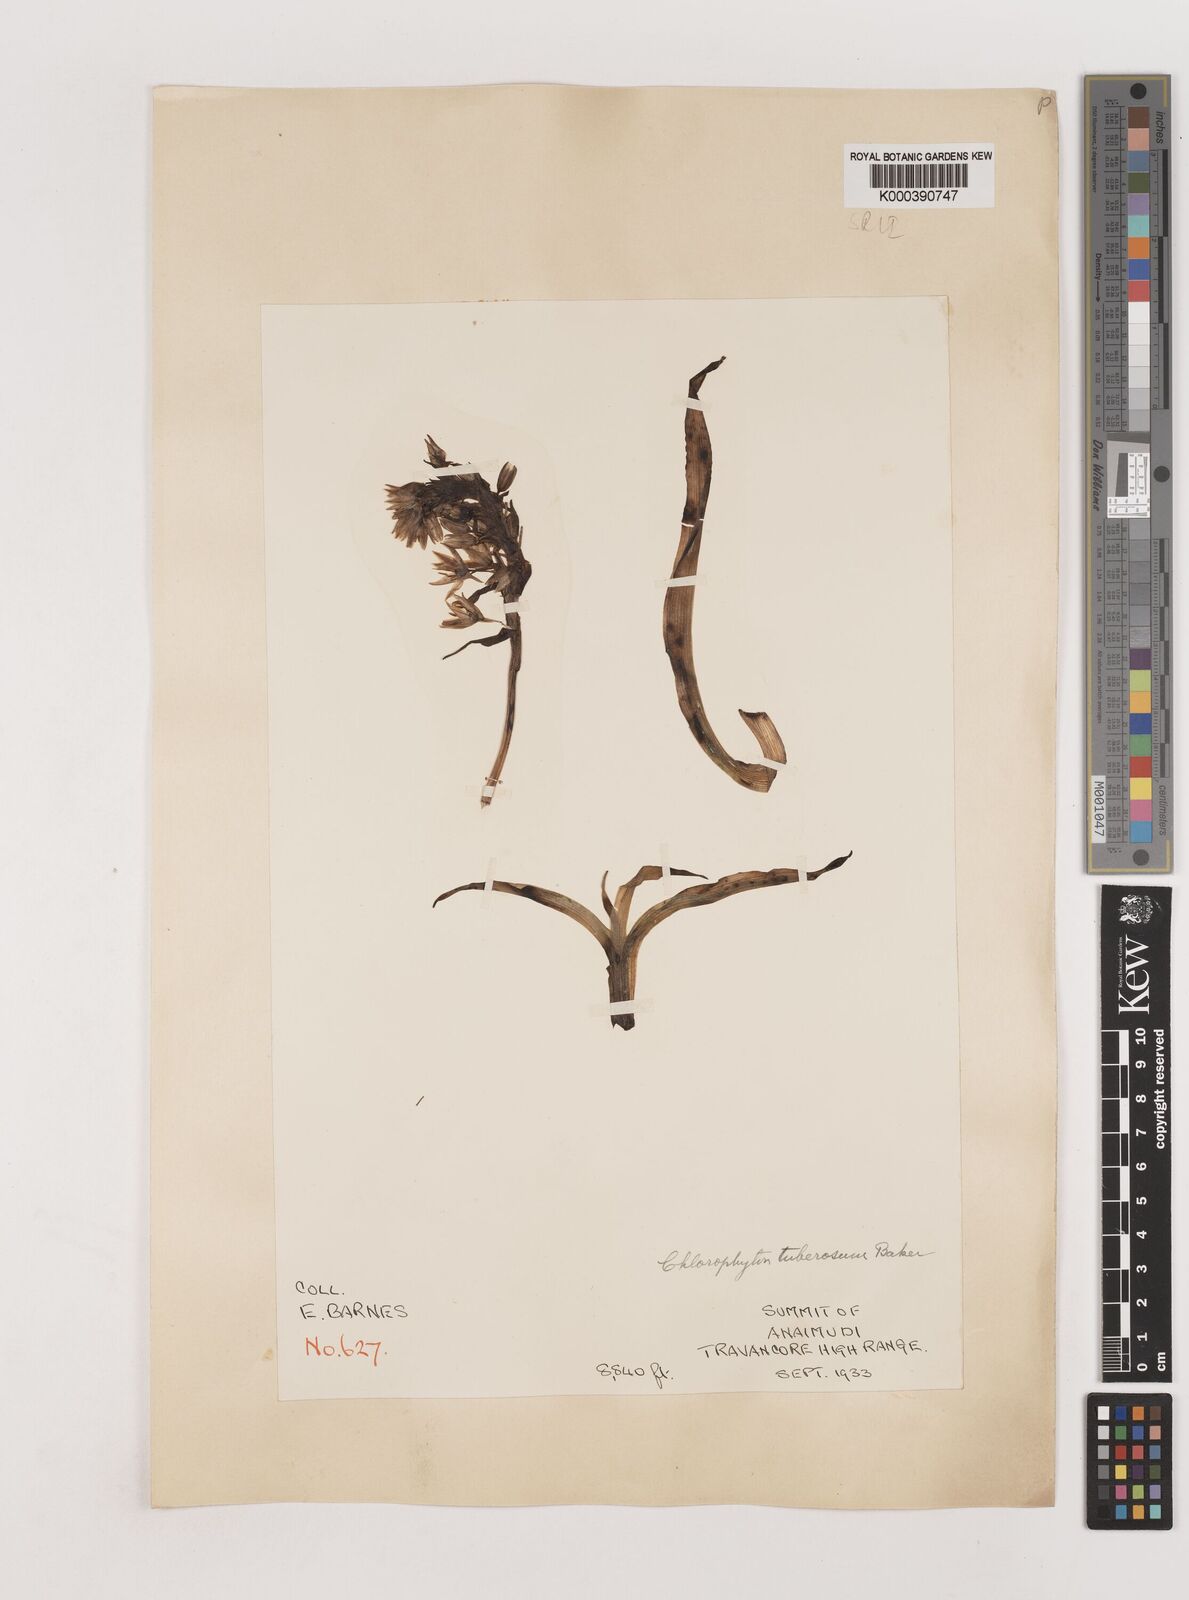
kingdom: Plantae
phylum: Tracheophyta
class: Liliopsida
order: Asparagales
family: Asparagaceae
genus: Chlorophytum
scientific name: Chlorophytum tuberosum
